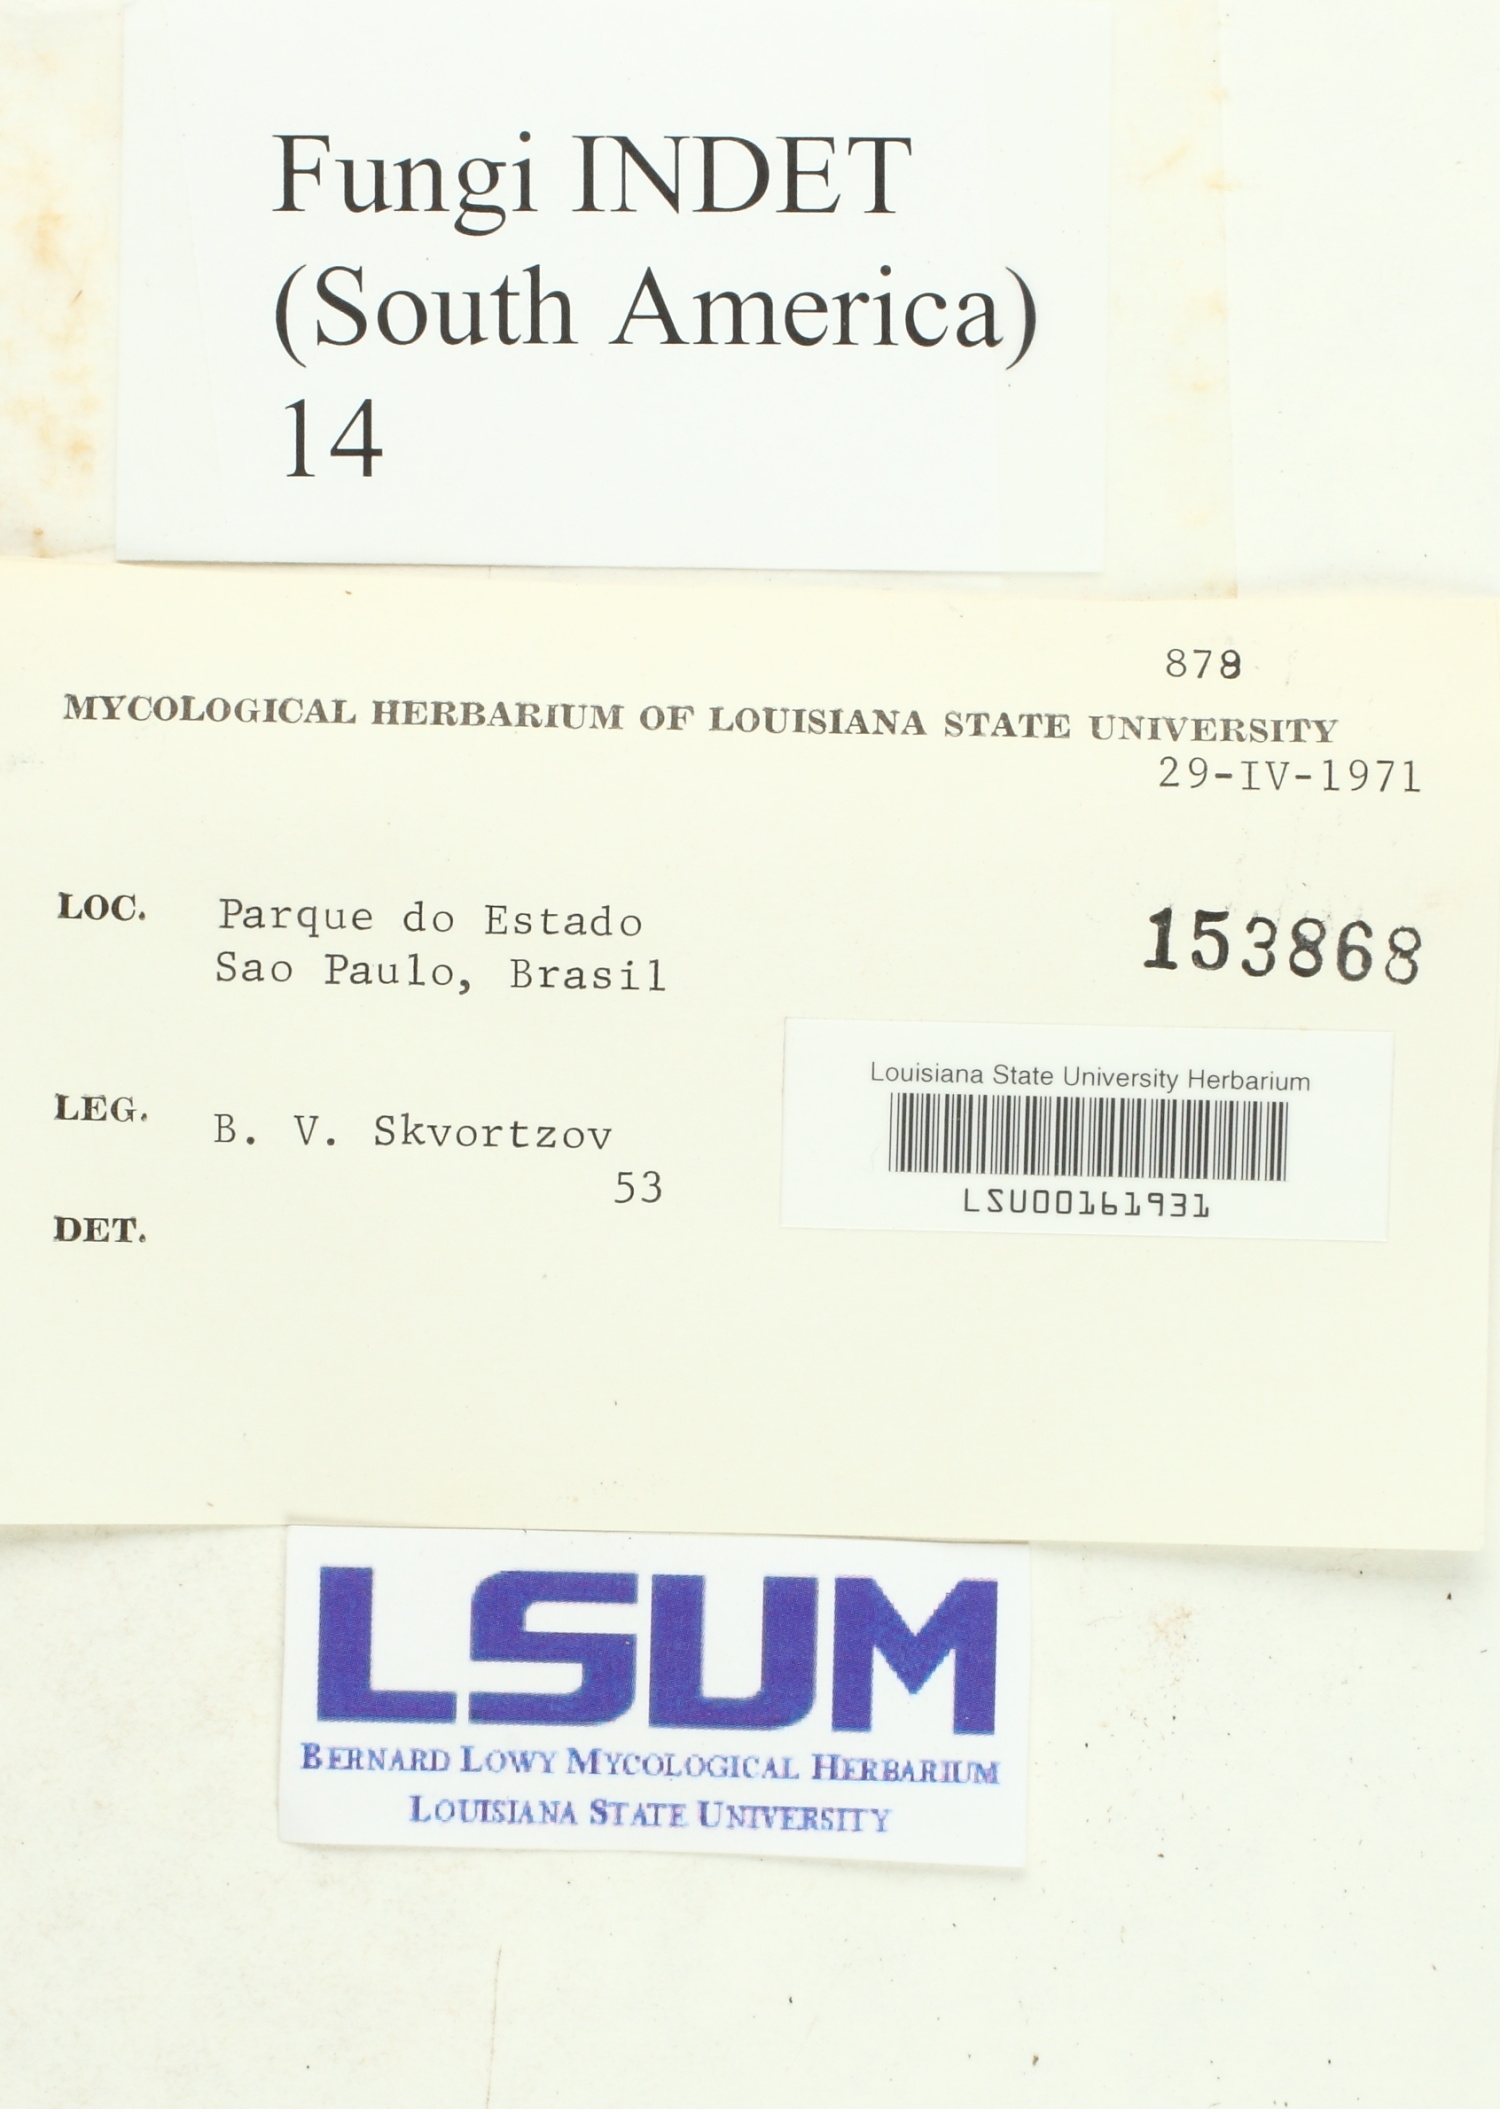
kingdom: Fungi
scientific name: Fungi
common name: Fungi
